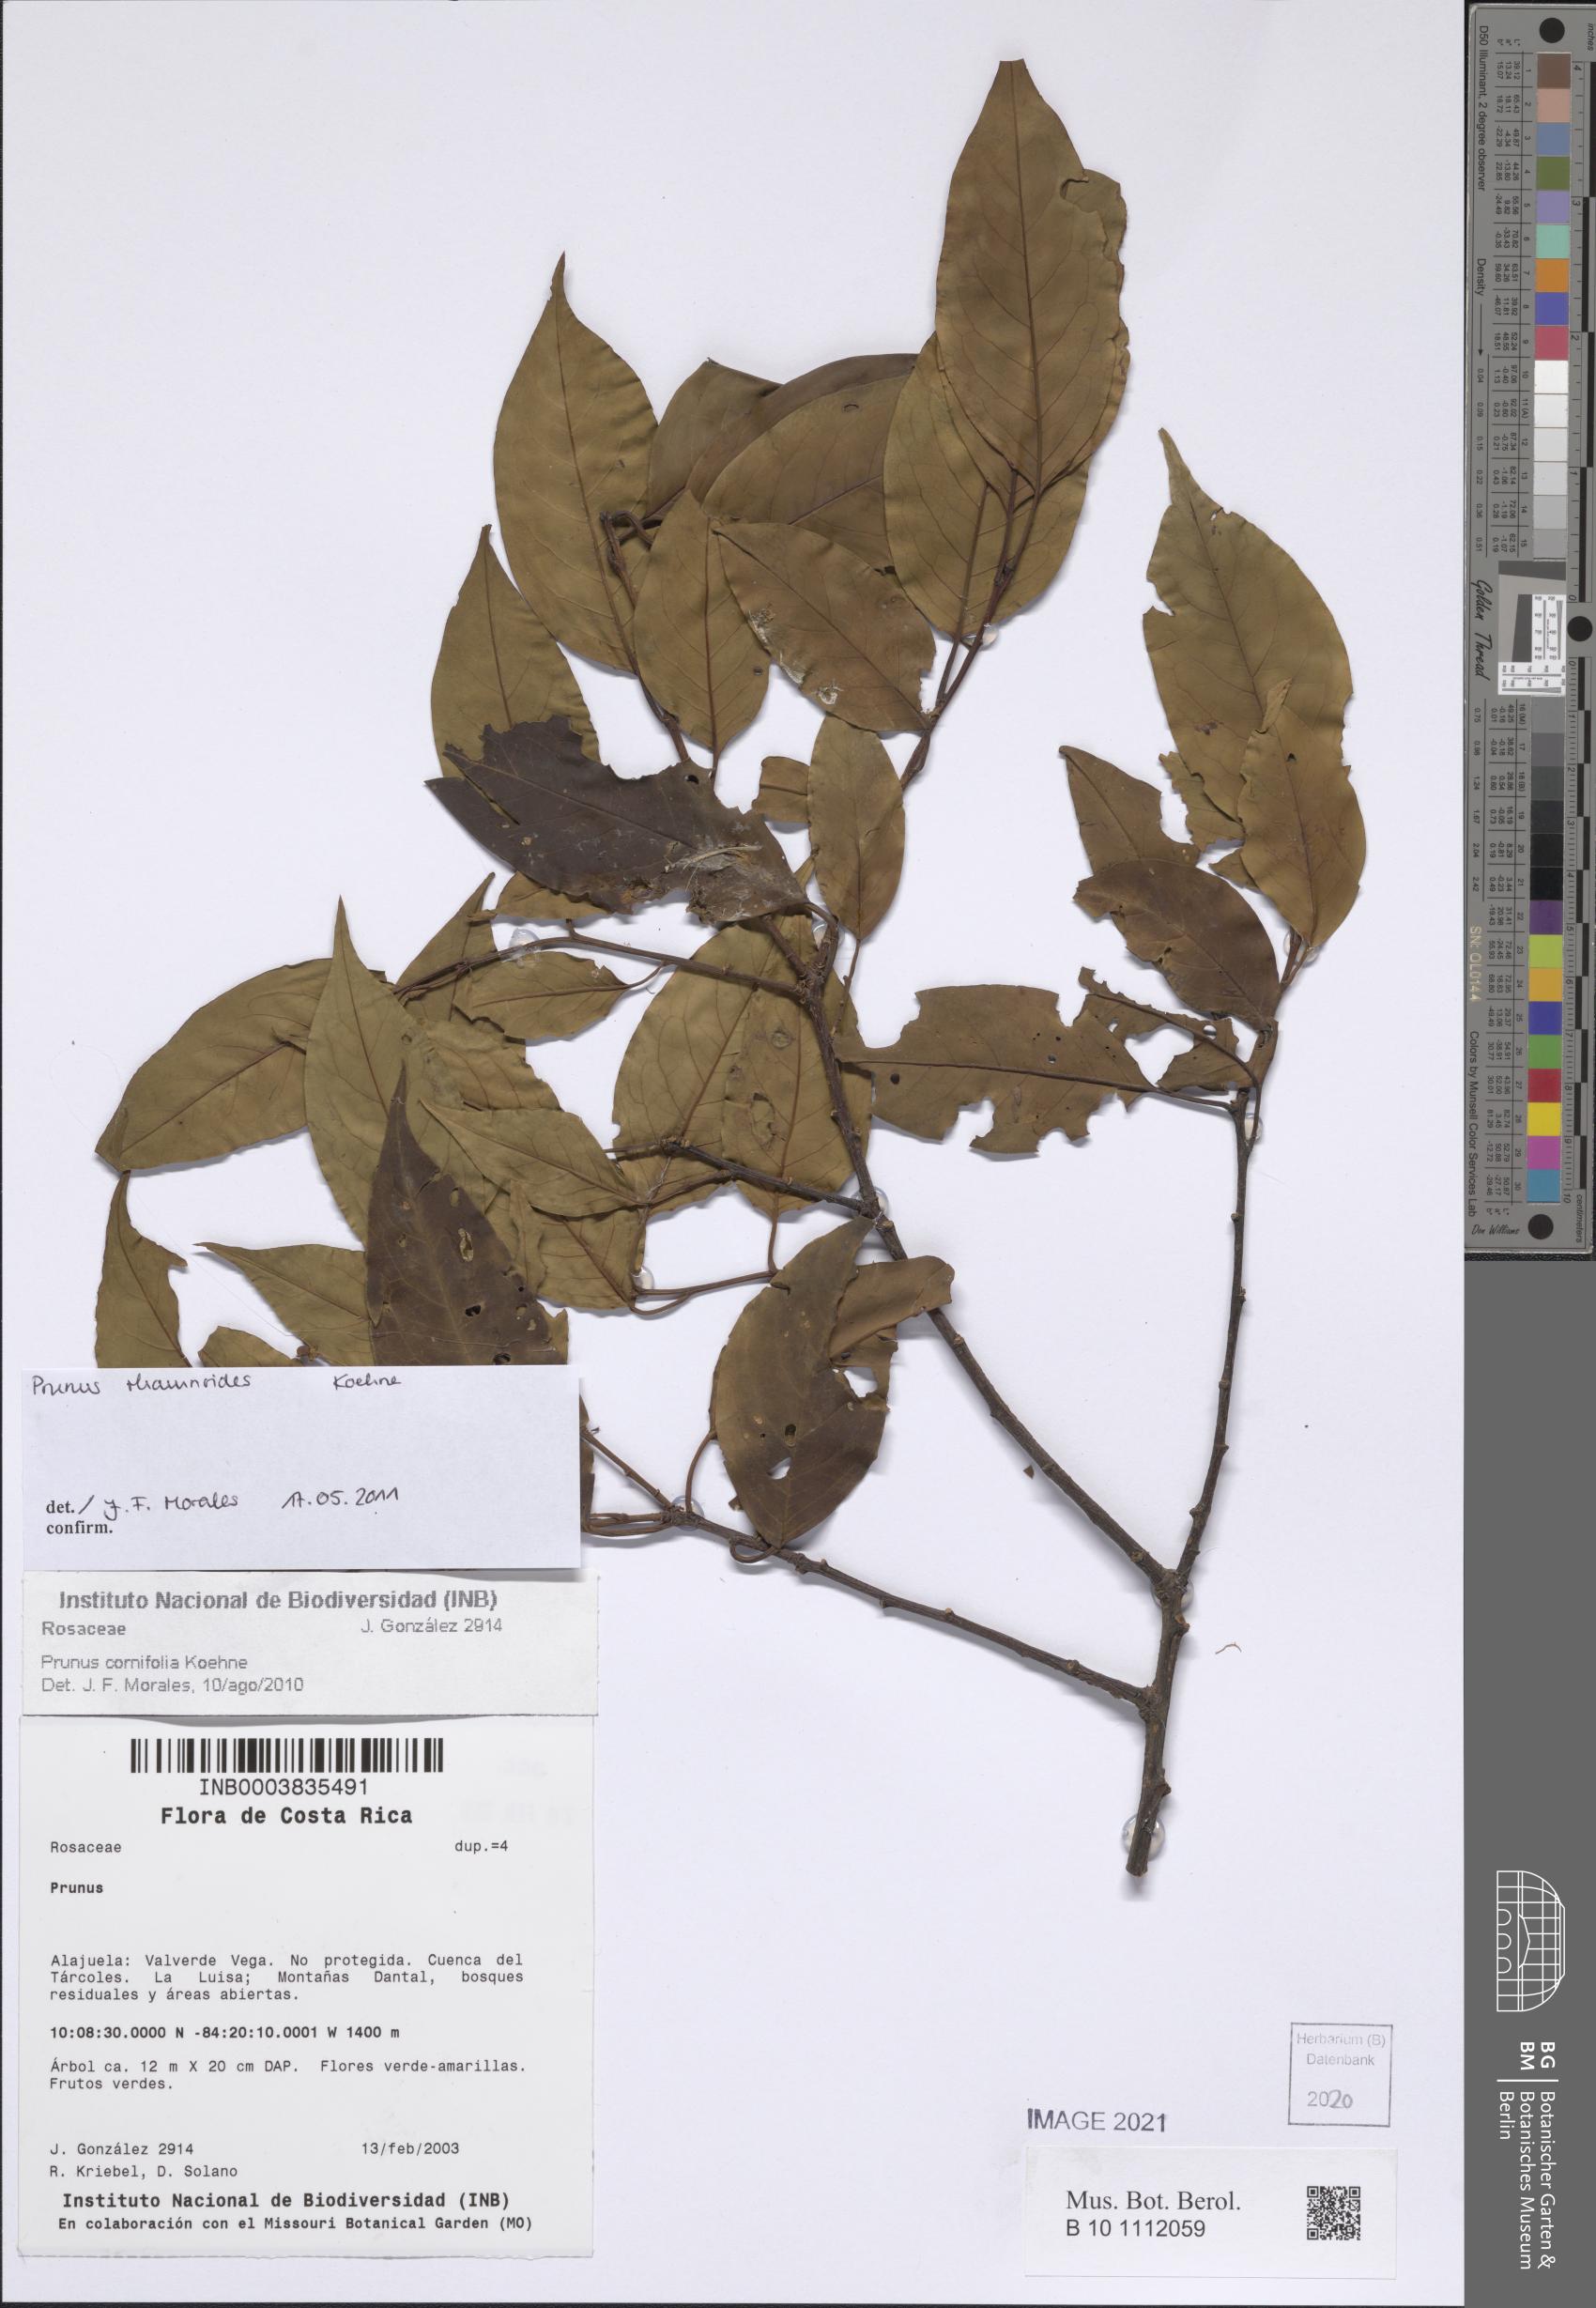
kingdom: Plantae
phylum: Tracheophyta
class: Magnoliopsida
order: Rosales
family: Rosaceae
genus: Prunus
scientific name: Prunus rhamnoides
